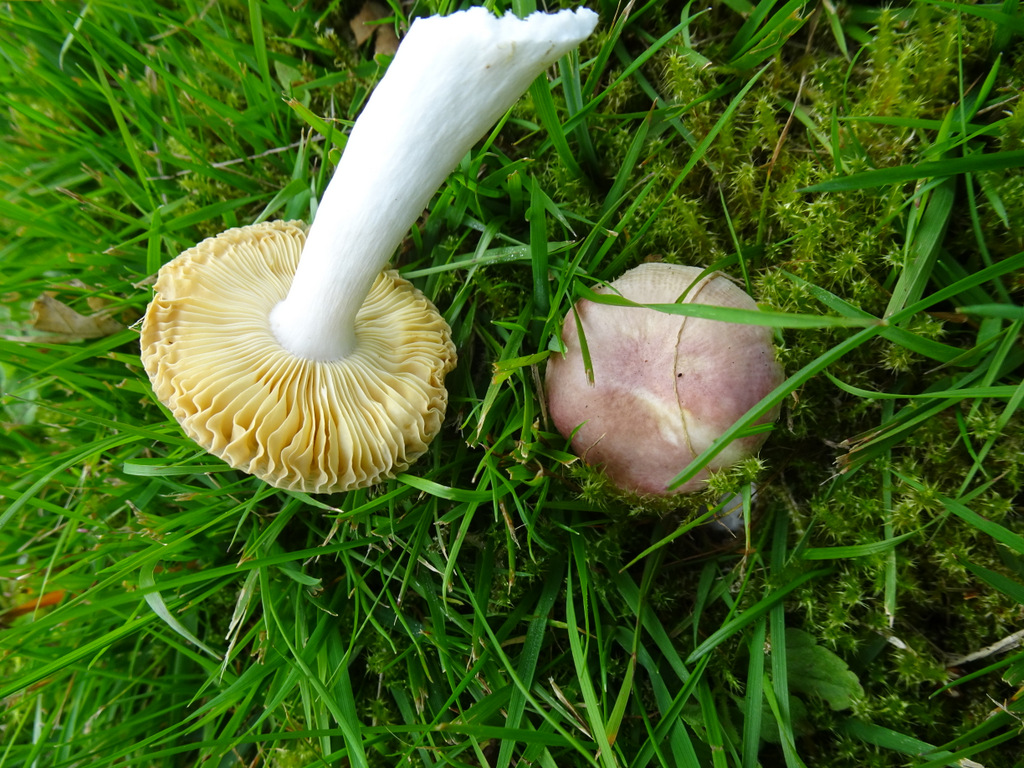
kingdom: Fungi
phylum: Basidiomycota
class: Agaricomycetes
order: Russulales
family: Russulaceae
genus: Russula
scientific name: Russula odorata
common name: duft-skørhat
